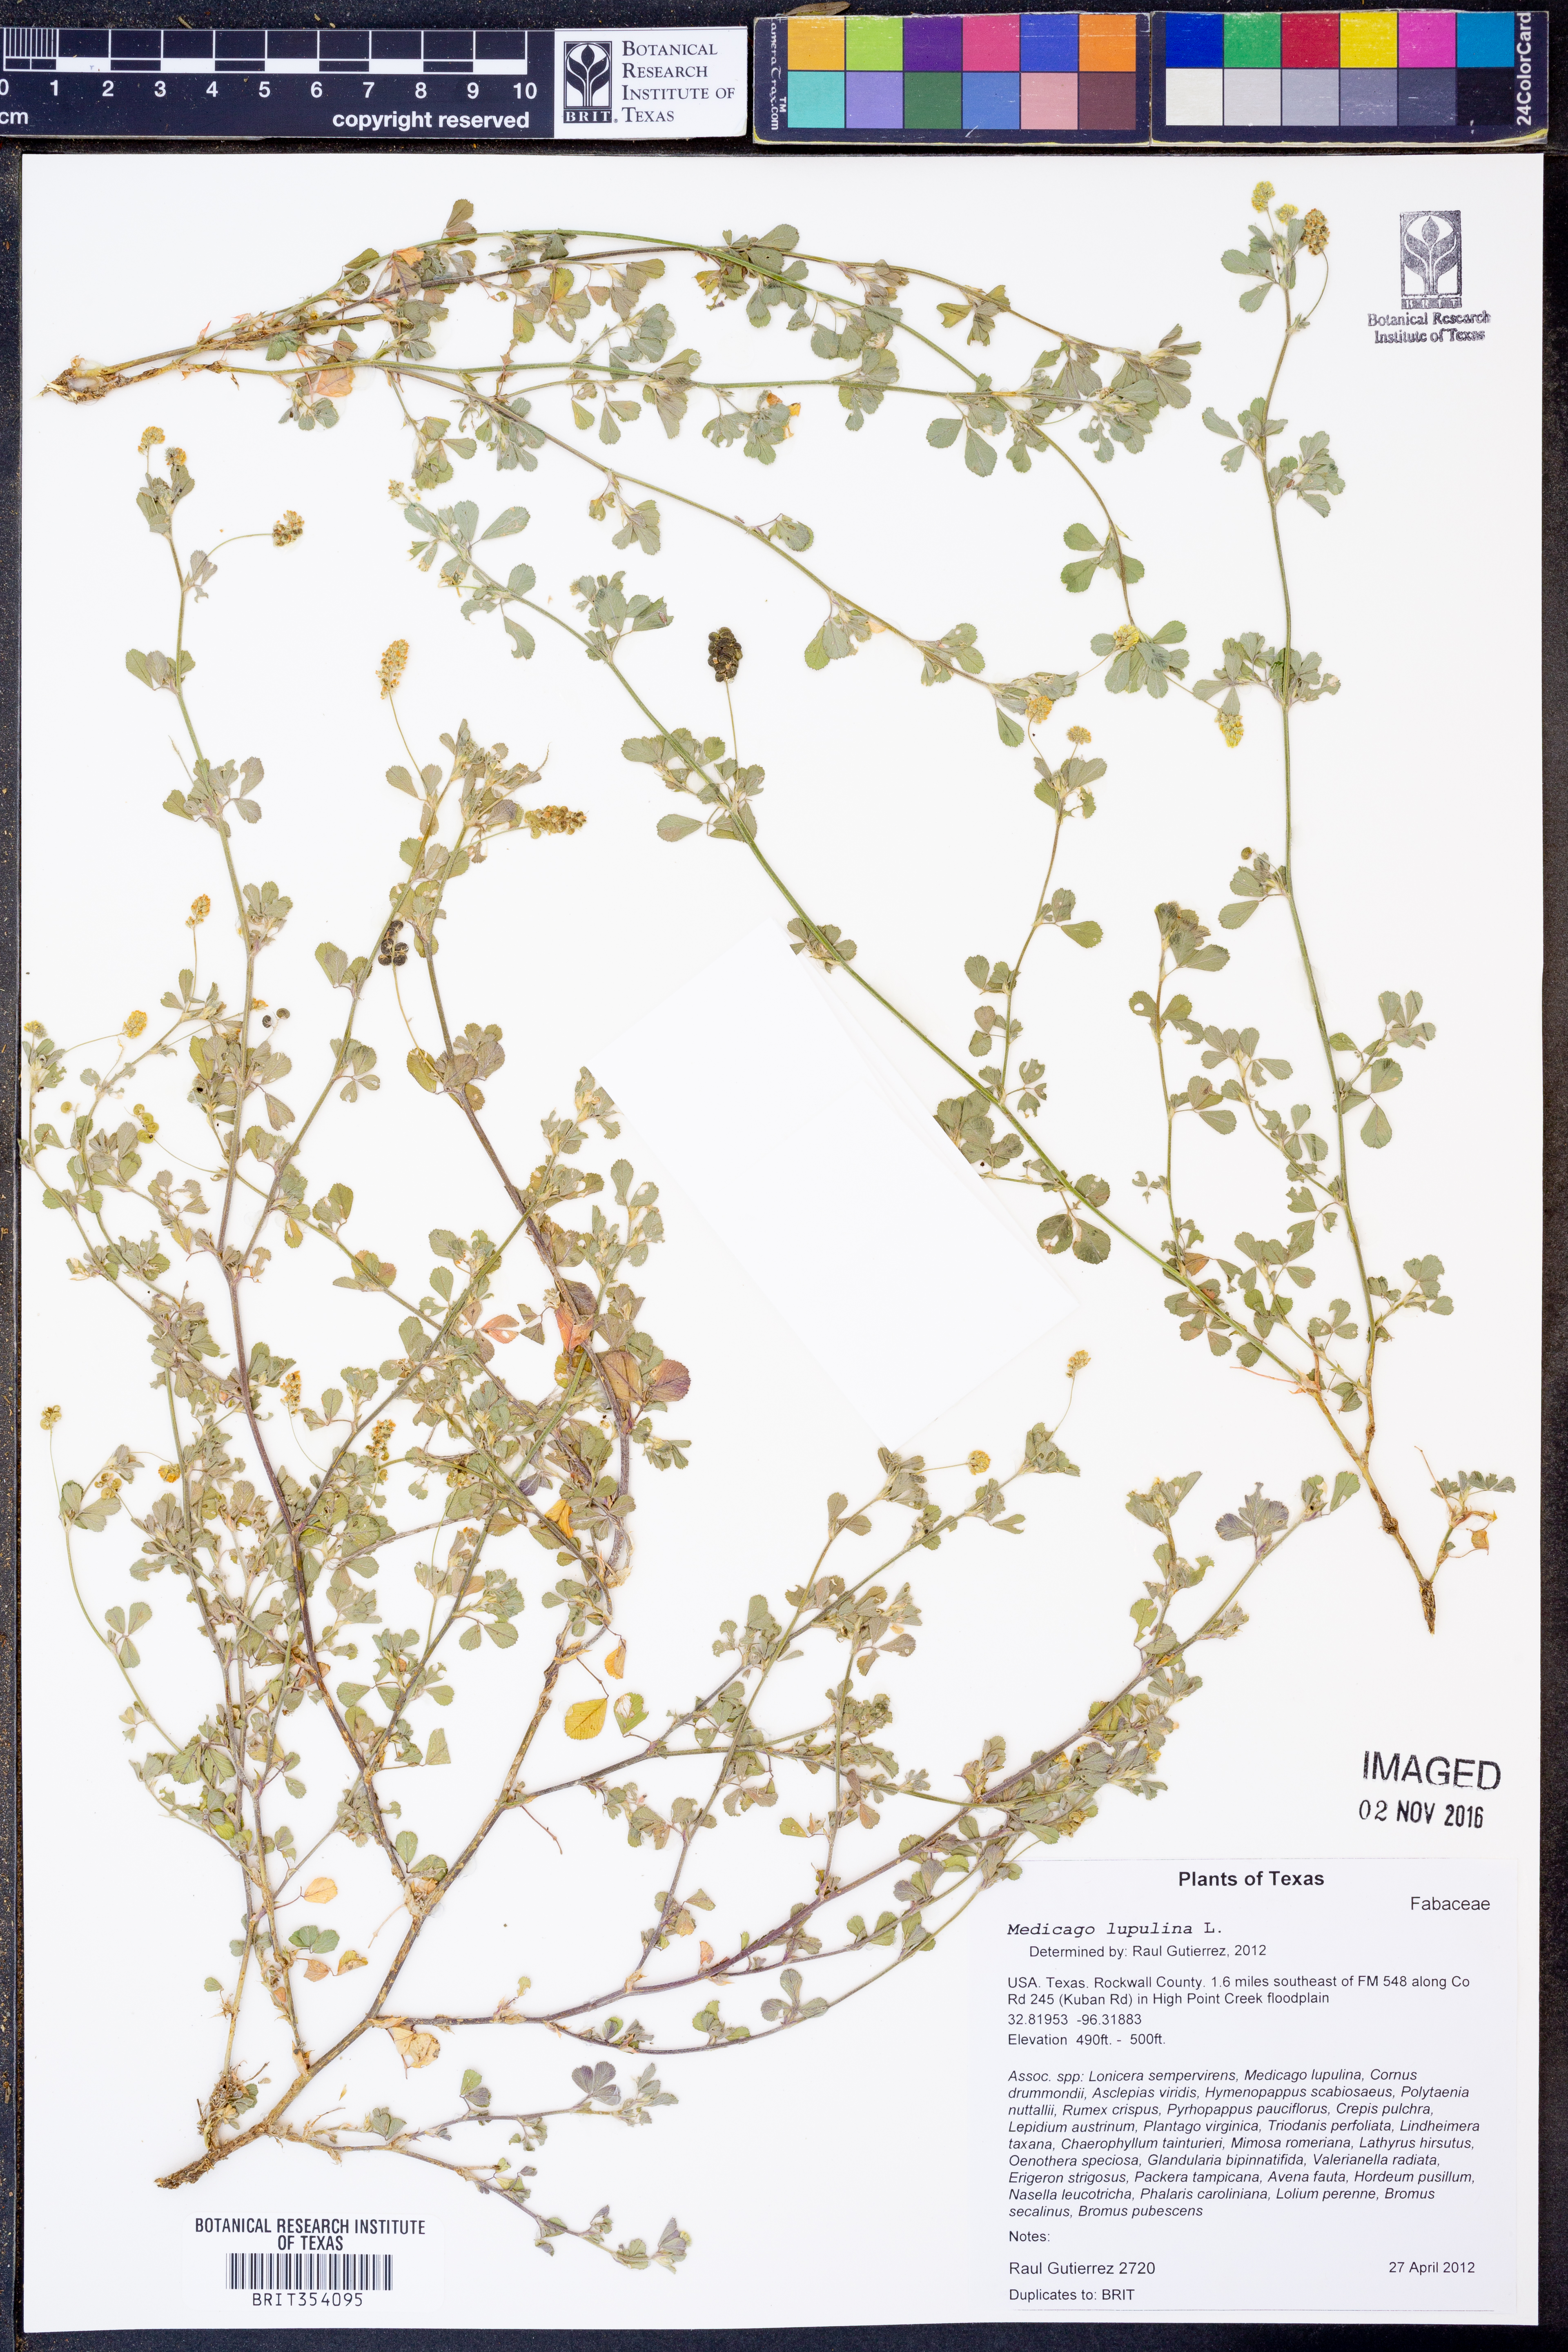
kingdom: Plantae
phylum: Tracheophyta
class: Magnoliopsida
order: Fabales
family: Fabaceae
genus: Medicago
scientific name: Medicago lupulina
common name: Black medick
